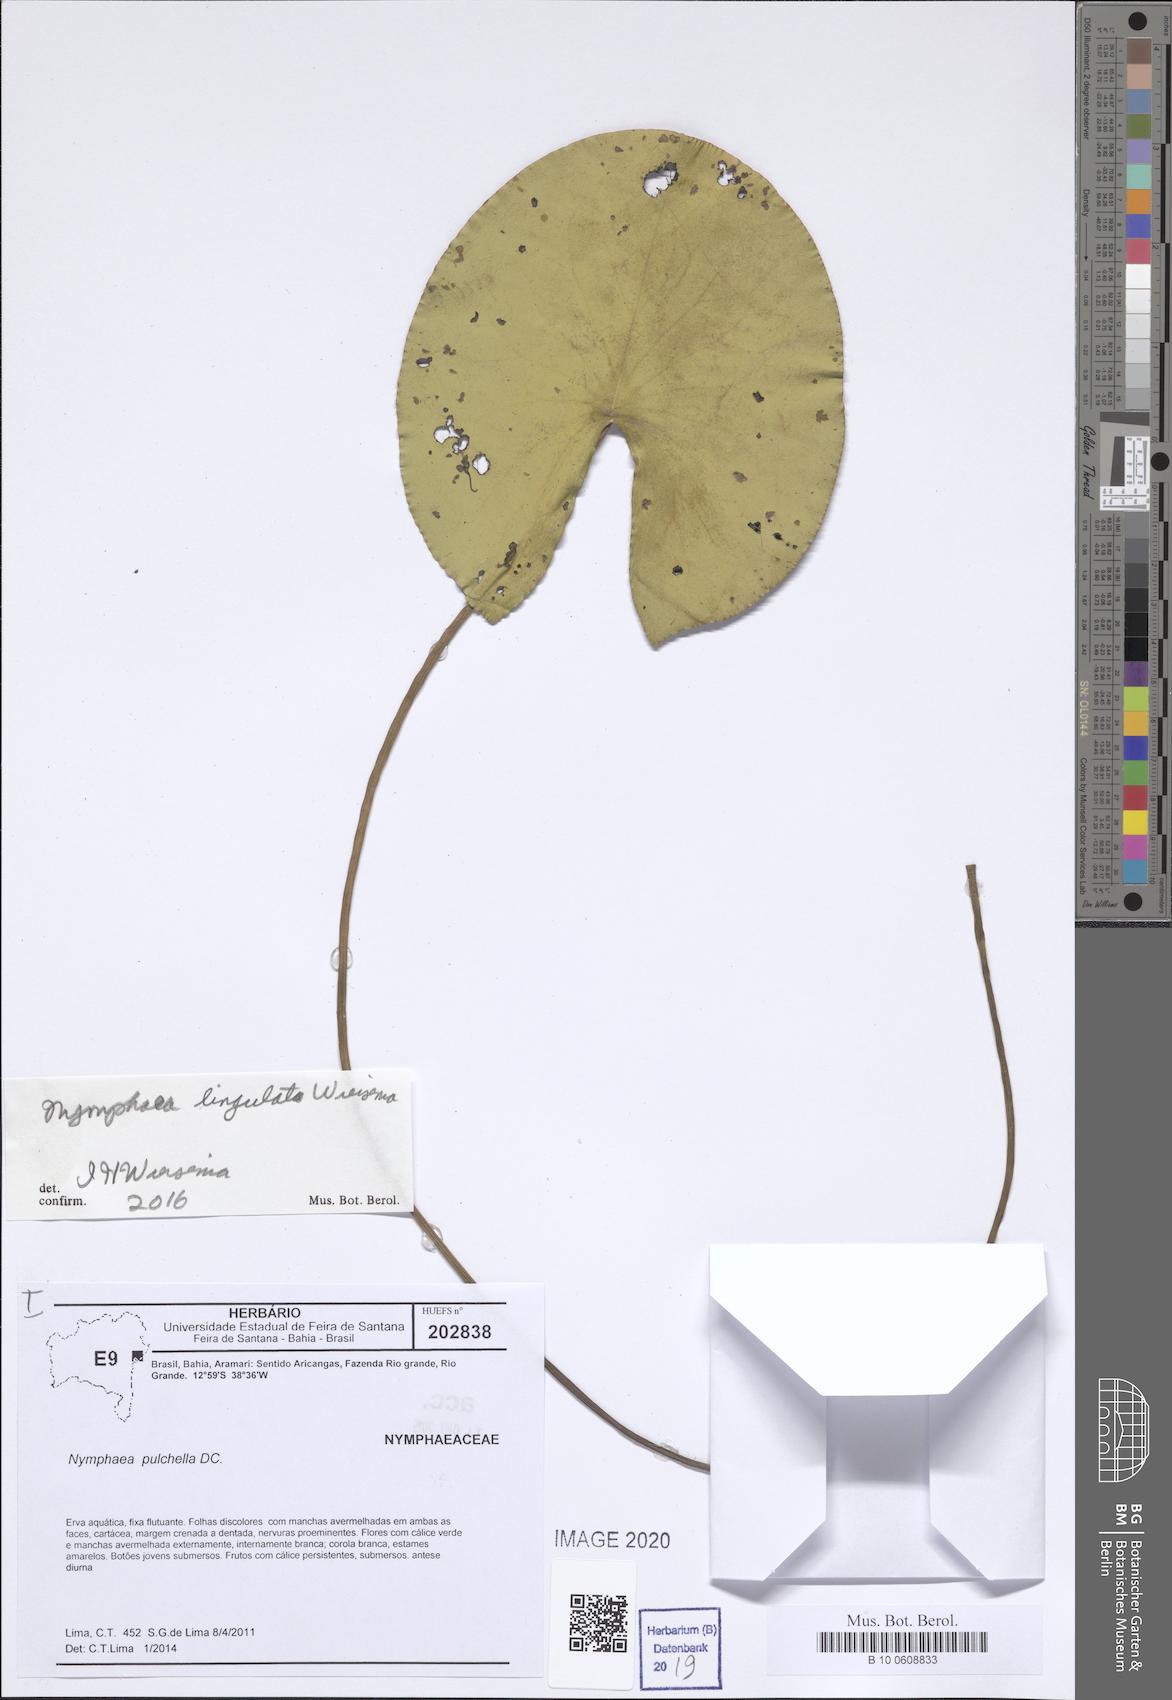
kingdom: Plantae
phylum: Tracheophyta
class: Magnoliopsida
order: Nymphaeales
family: Nymphaeaceae
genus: Nymphaea
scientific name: Nymphaea lingulata
